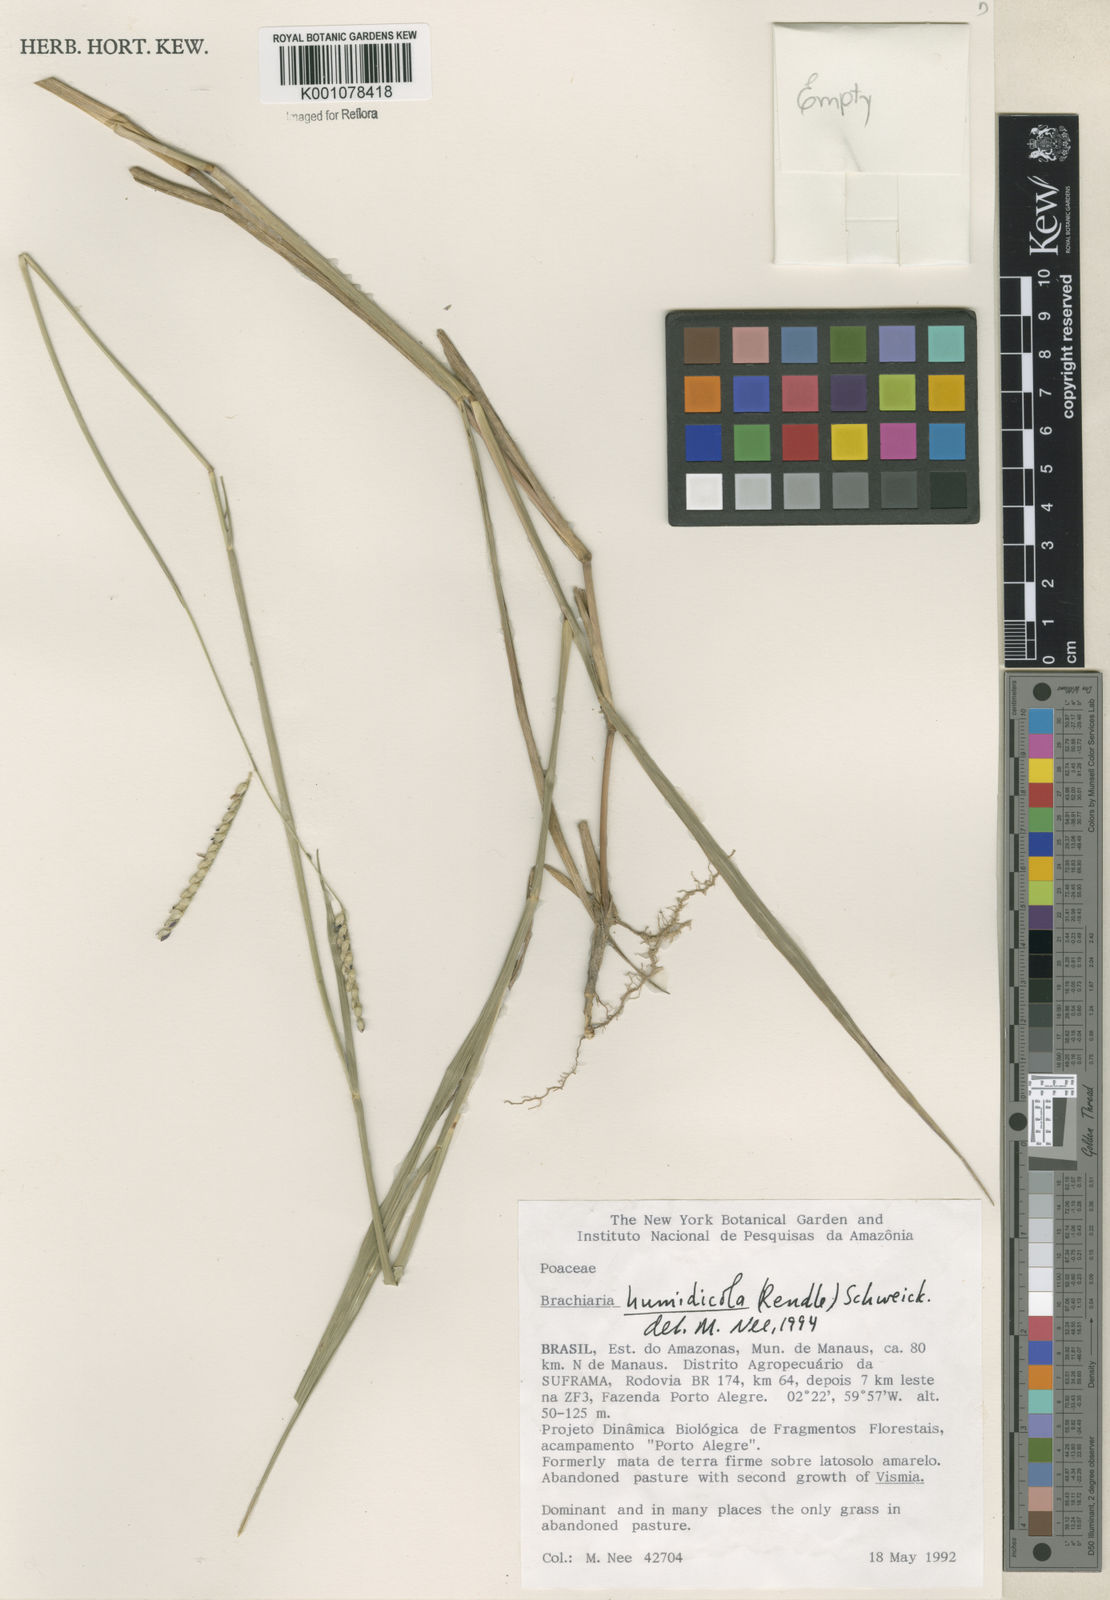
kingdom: Plantae
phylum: Tracheophyta
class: Liliopsida
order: Poales
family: Poaceae
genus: Urochloa
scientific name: Urochloa dictyoneura
